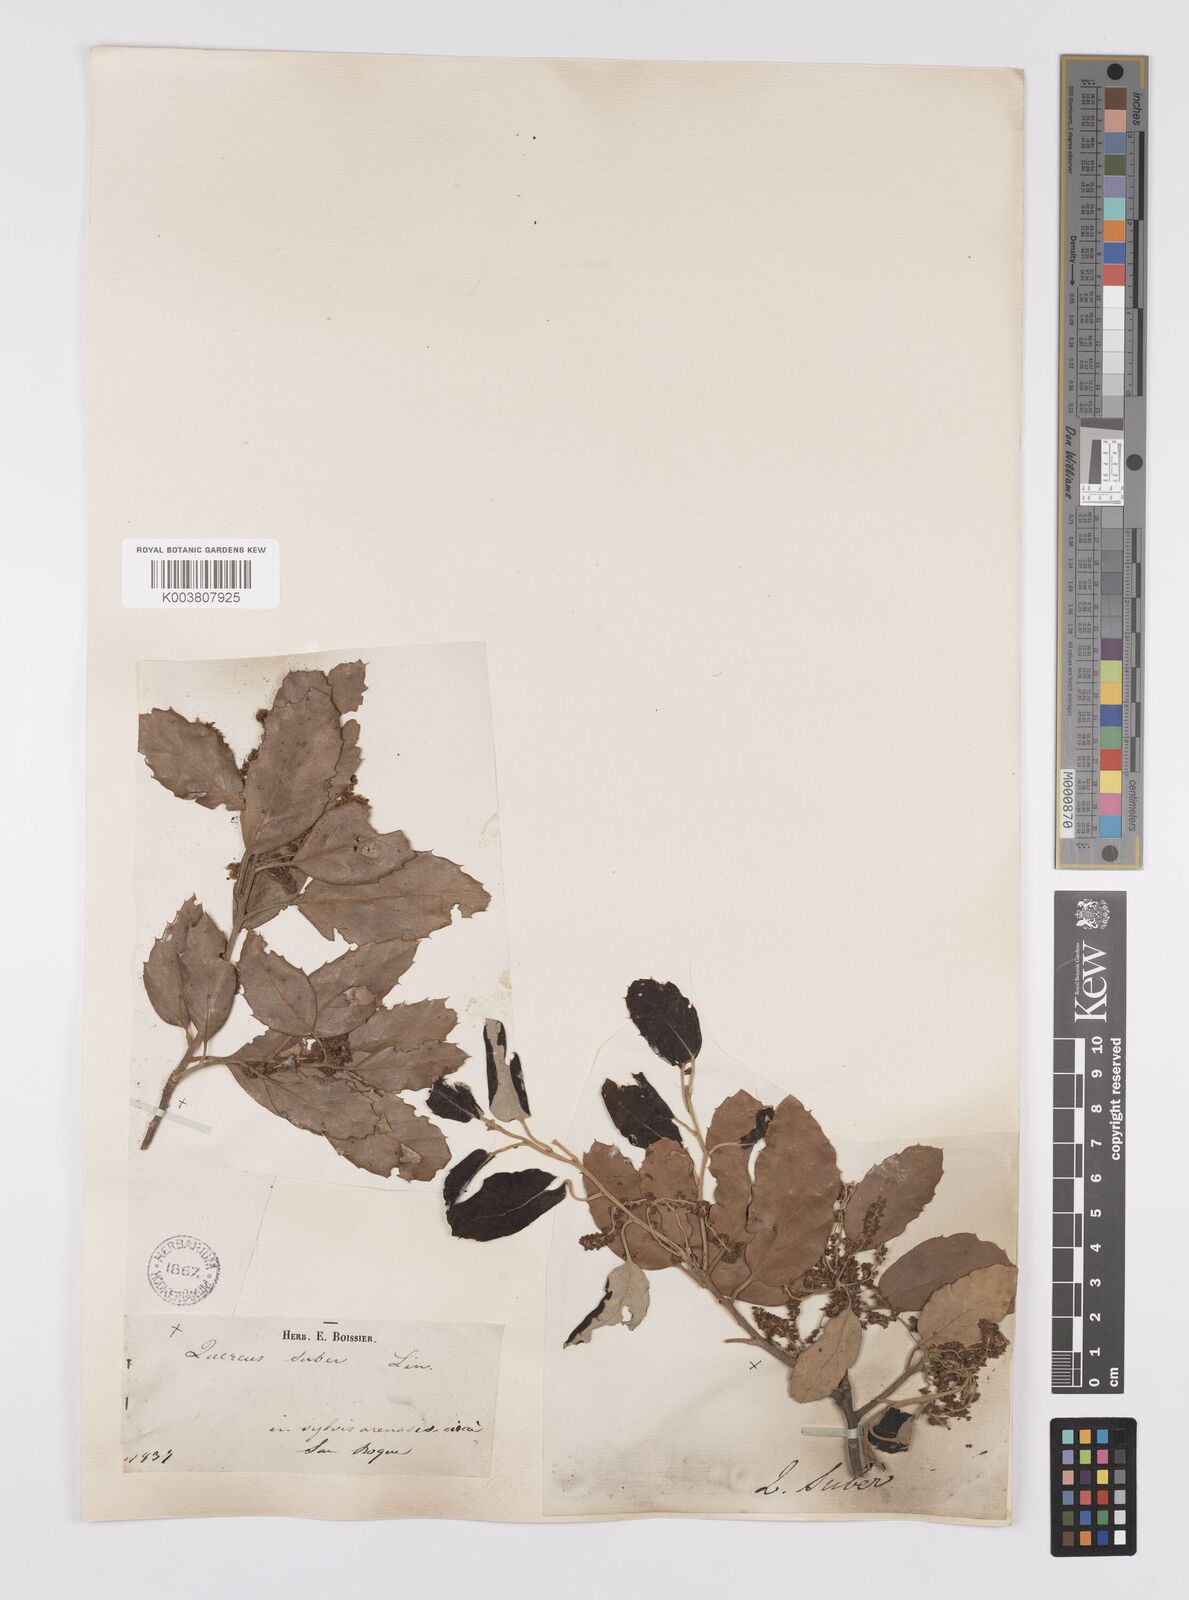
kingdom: Plantae
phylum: Tracheophyta
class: Magnoliopsida
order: Fagales
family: Fagaceae
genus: Quercus
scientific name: Quercus suber
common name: Cork oak
